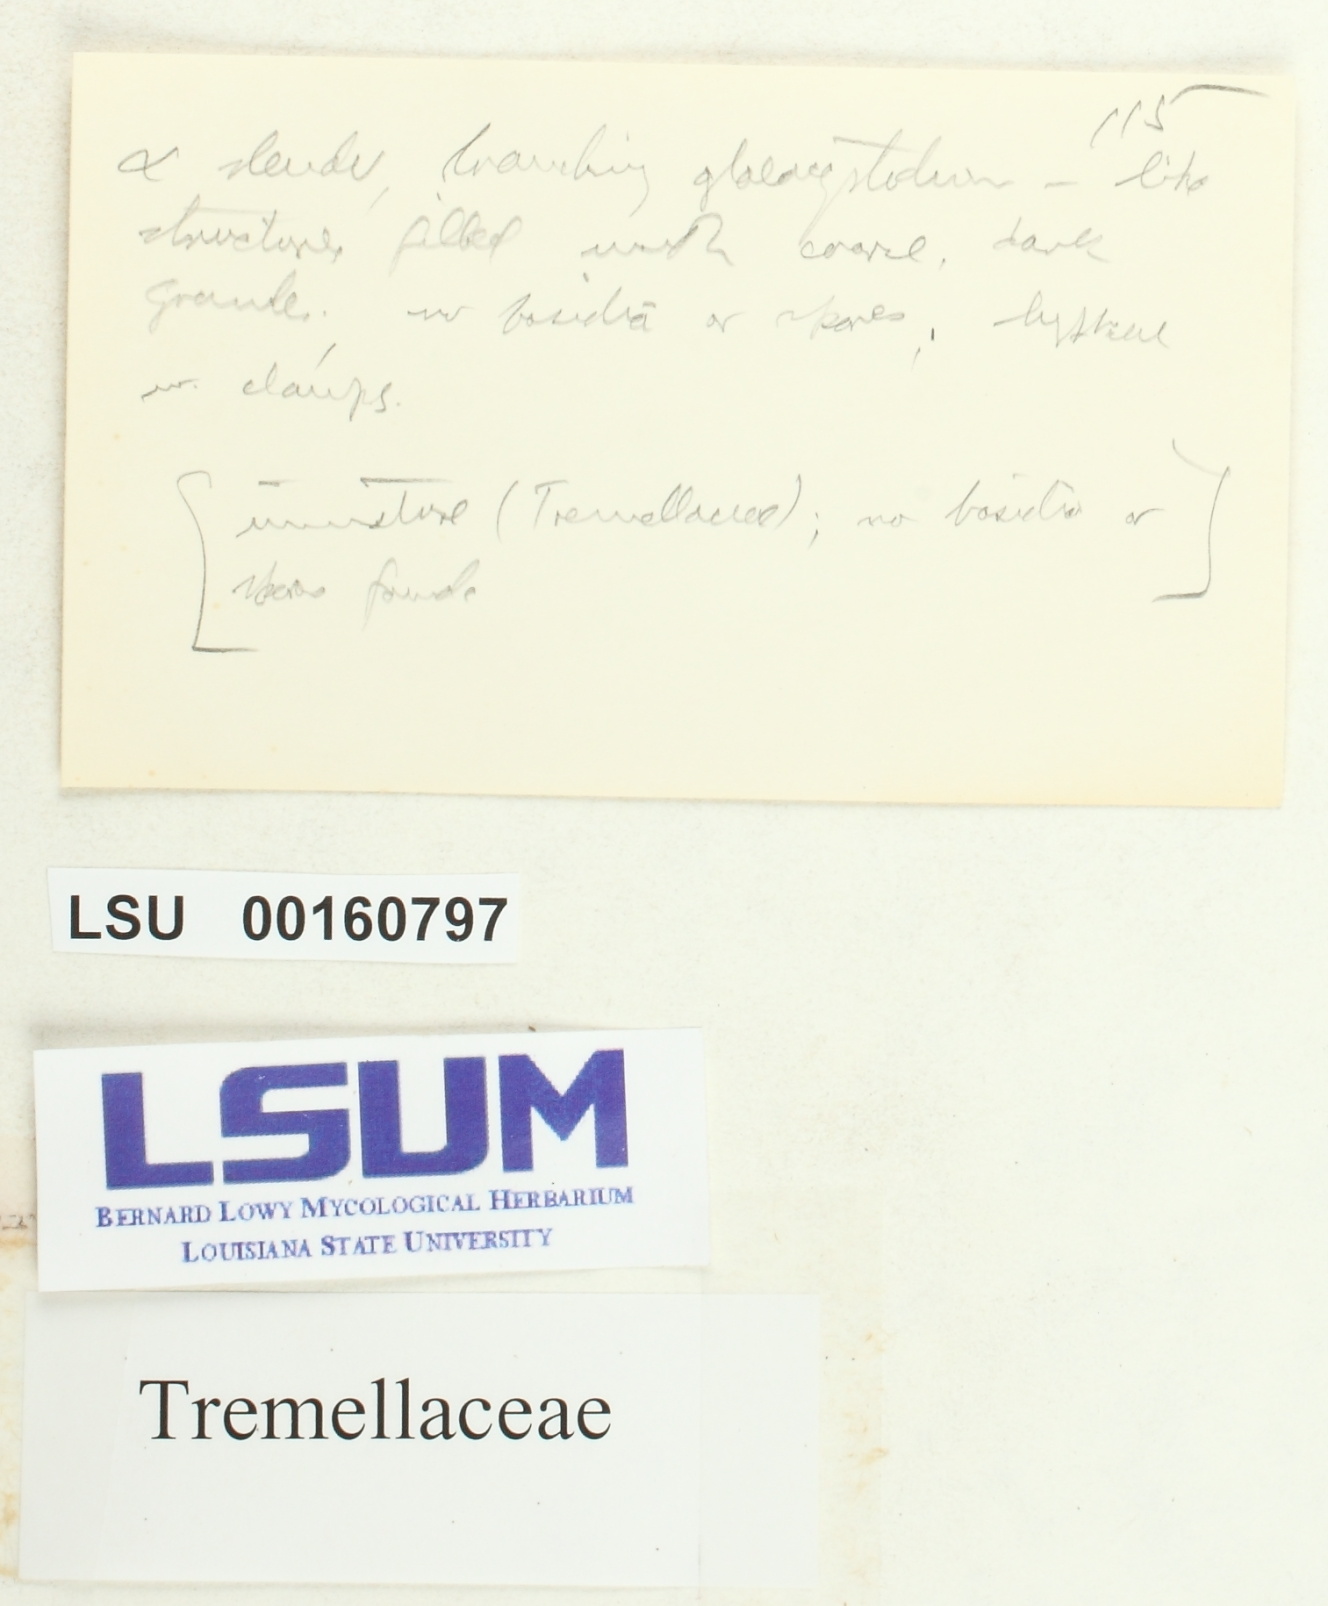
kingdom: Fungi
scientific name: Fungi
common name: Fungi
